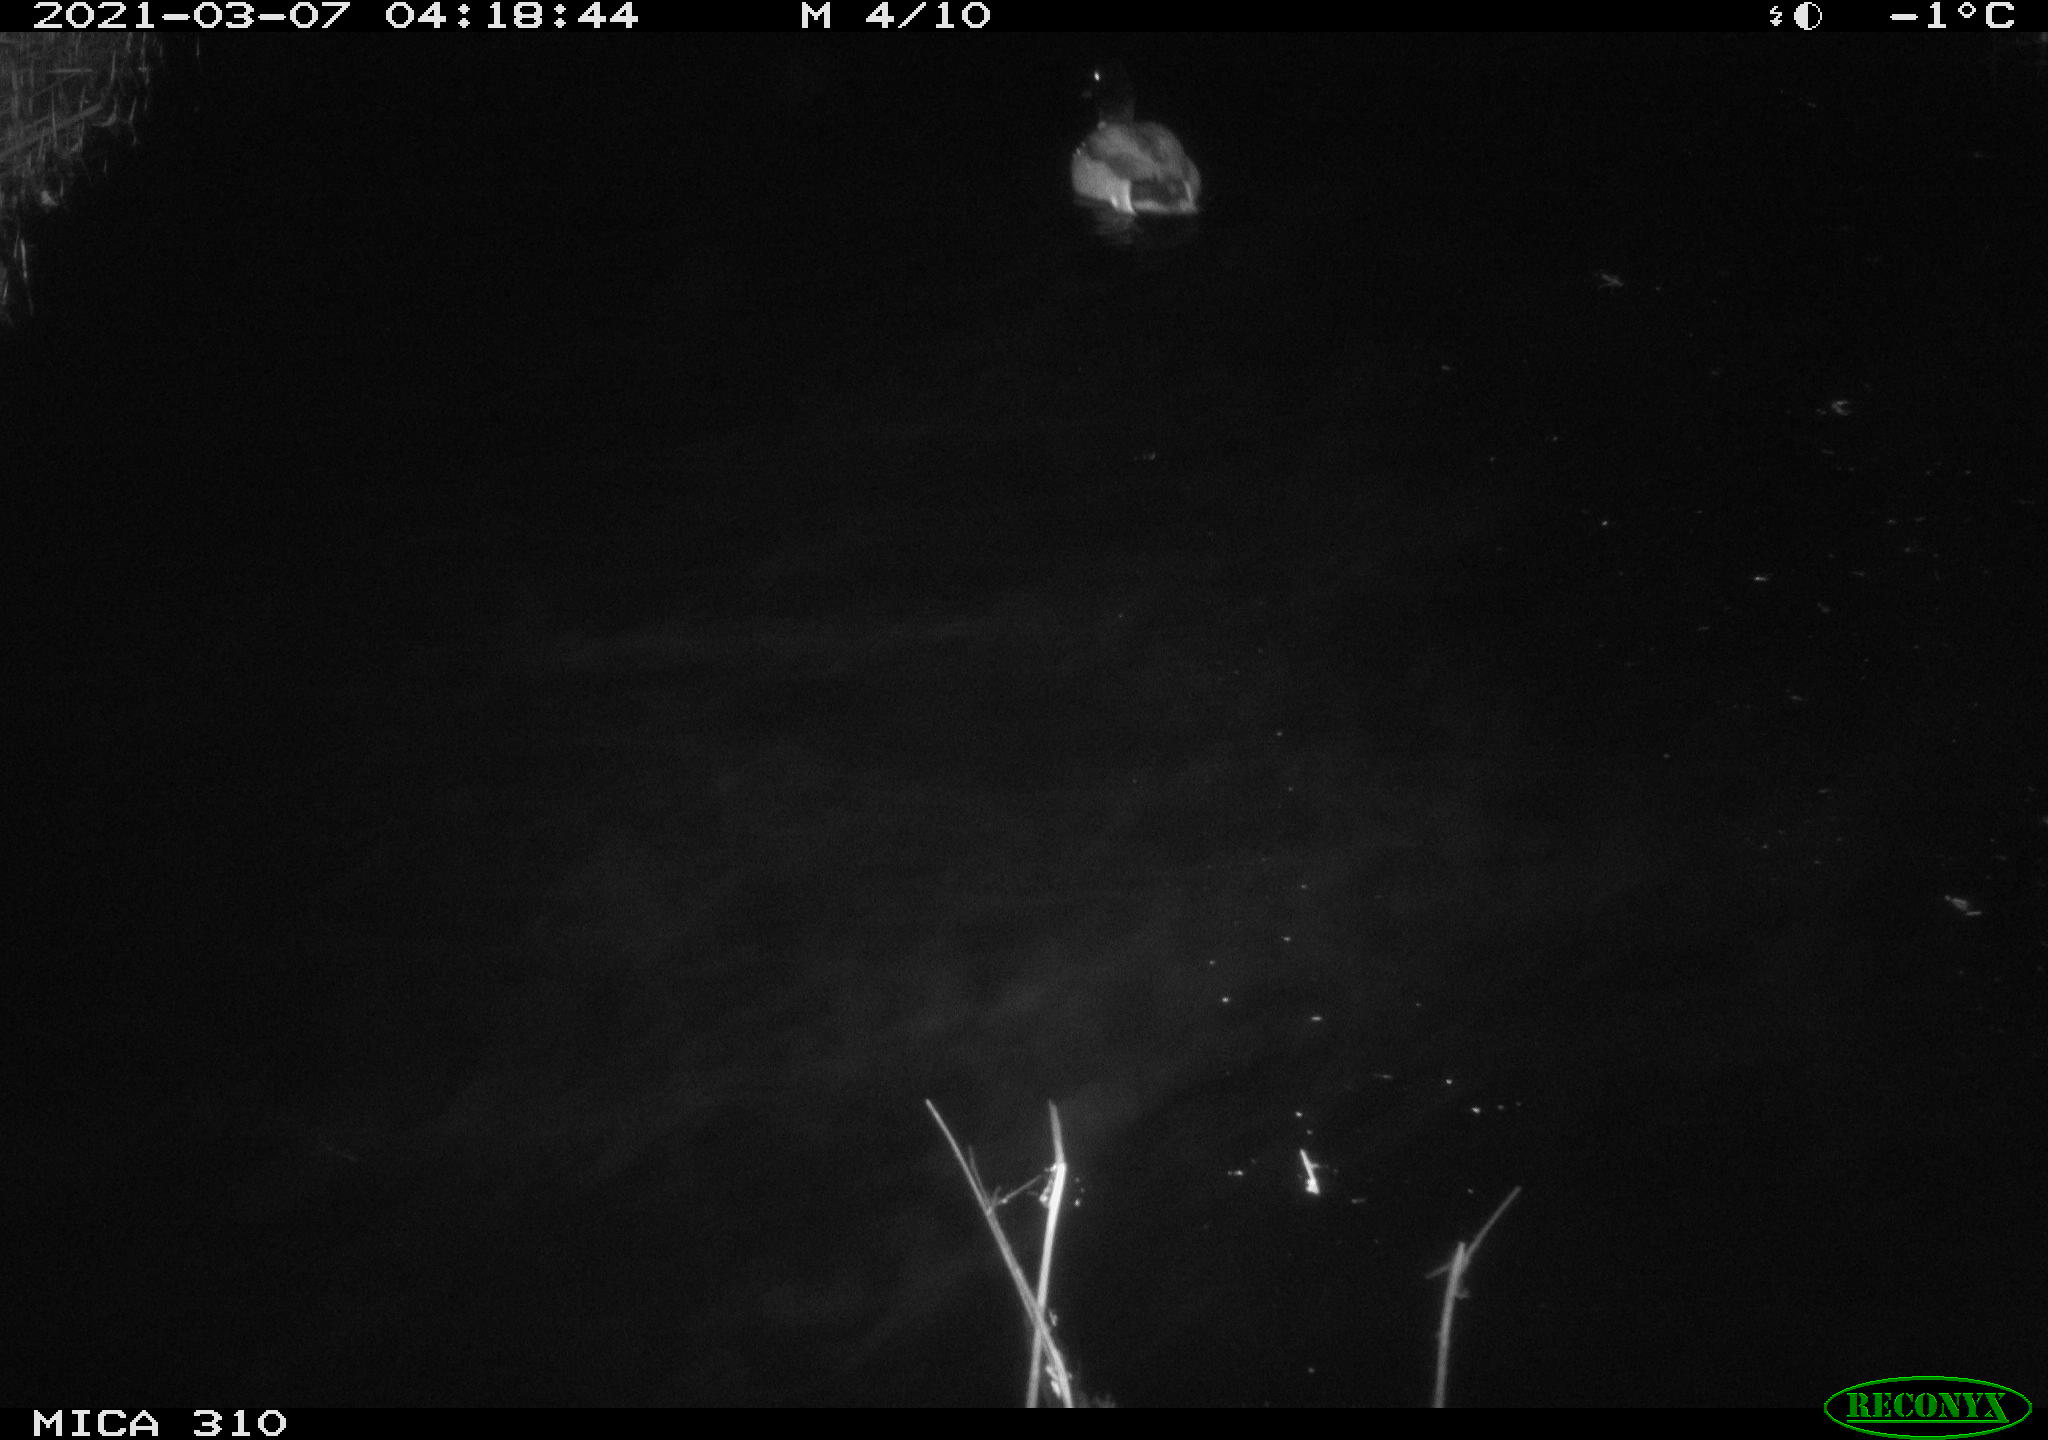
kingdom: Animalia
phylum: Chordata
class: Aves
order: Anseriformes
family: Anatidae
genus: Anas
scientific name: Anas platyrhynchos
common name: Mallard
